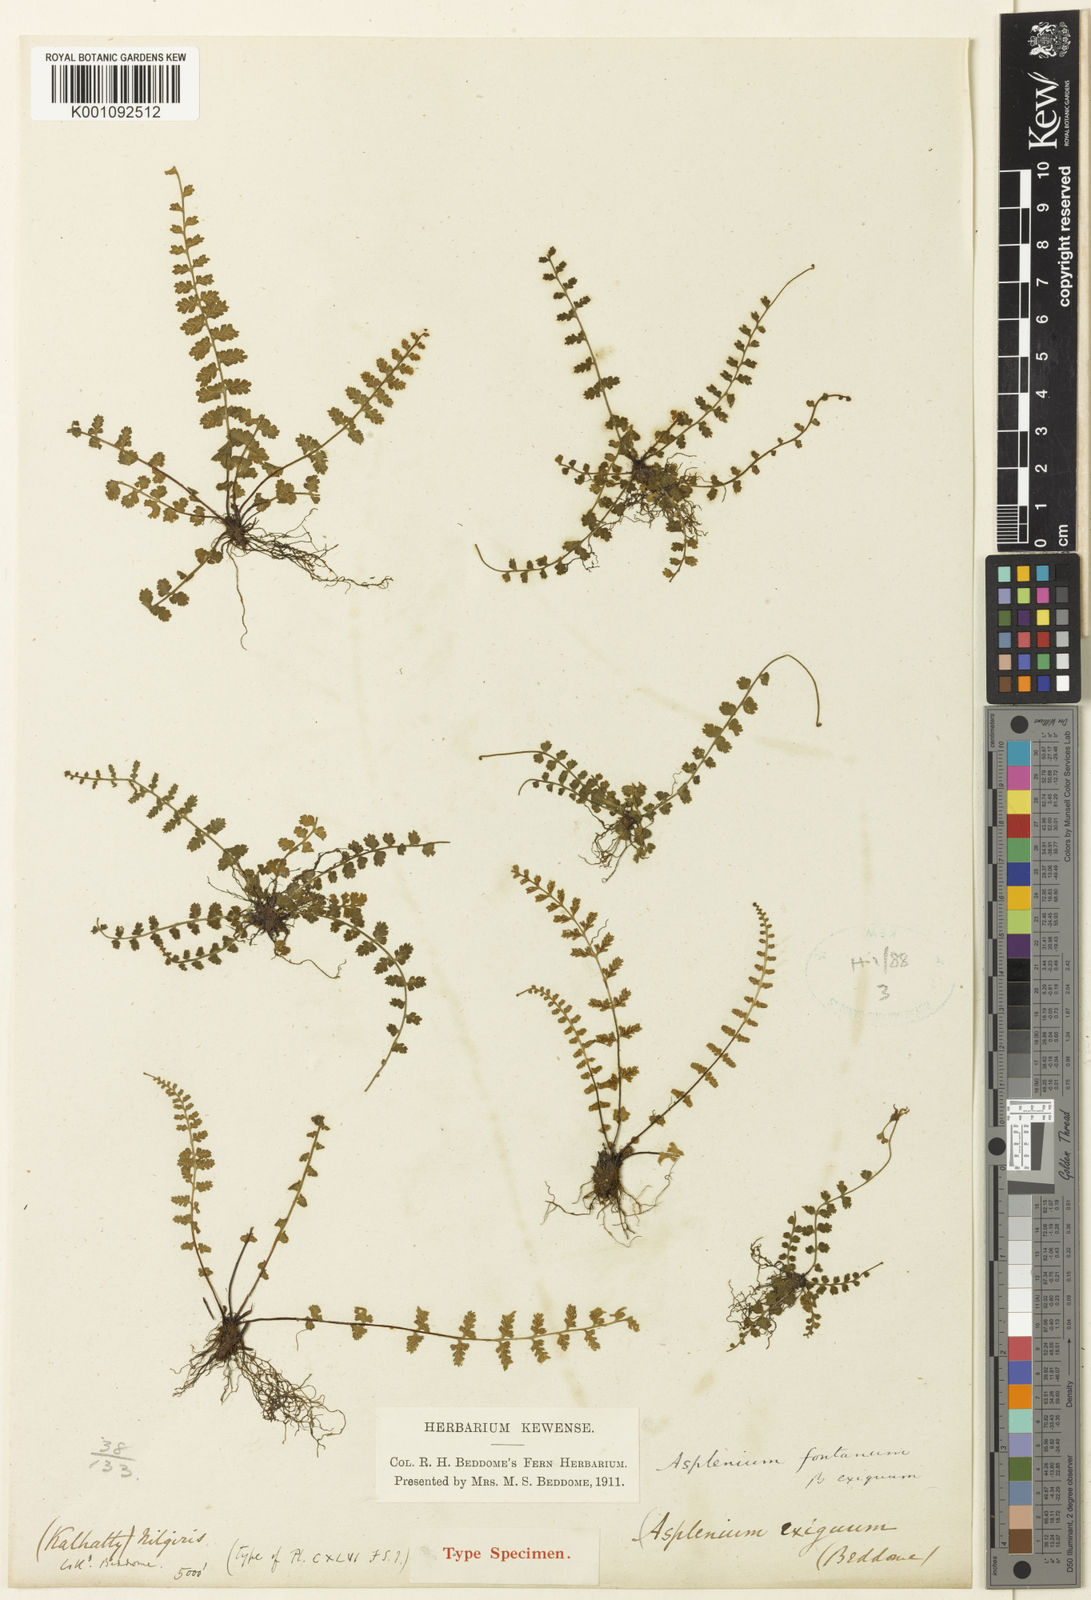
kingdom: Plantae
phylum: Tracheophyta
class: Polypodiopsida
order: Polypodiales
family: Aspleniaceae
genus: Asplenium
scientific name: Asplenium exiguum
